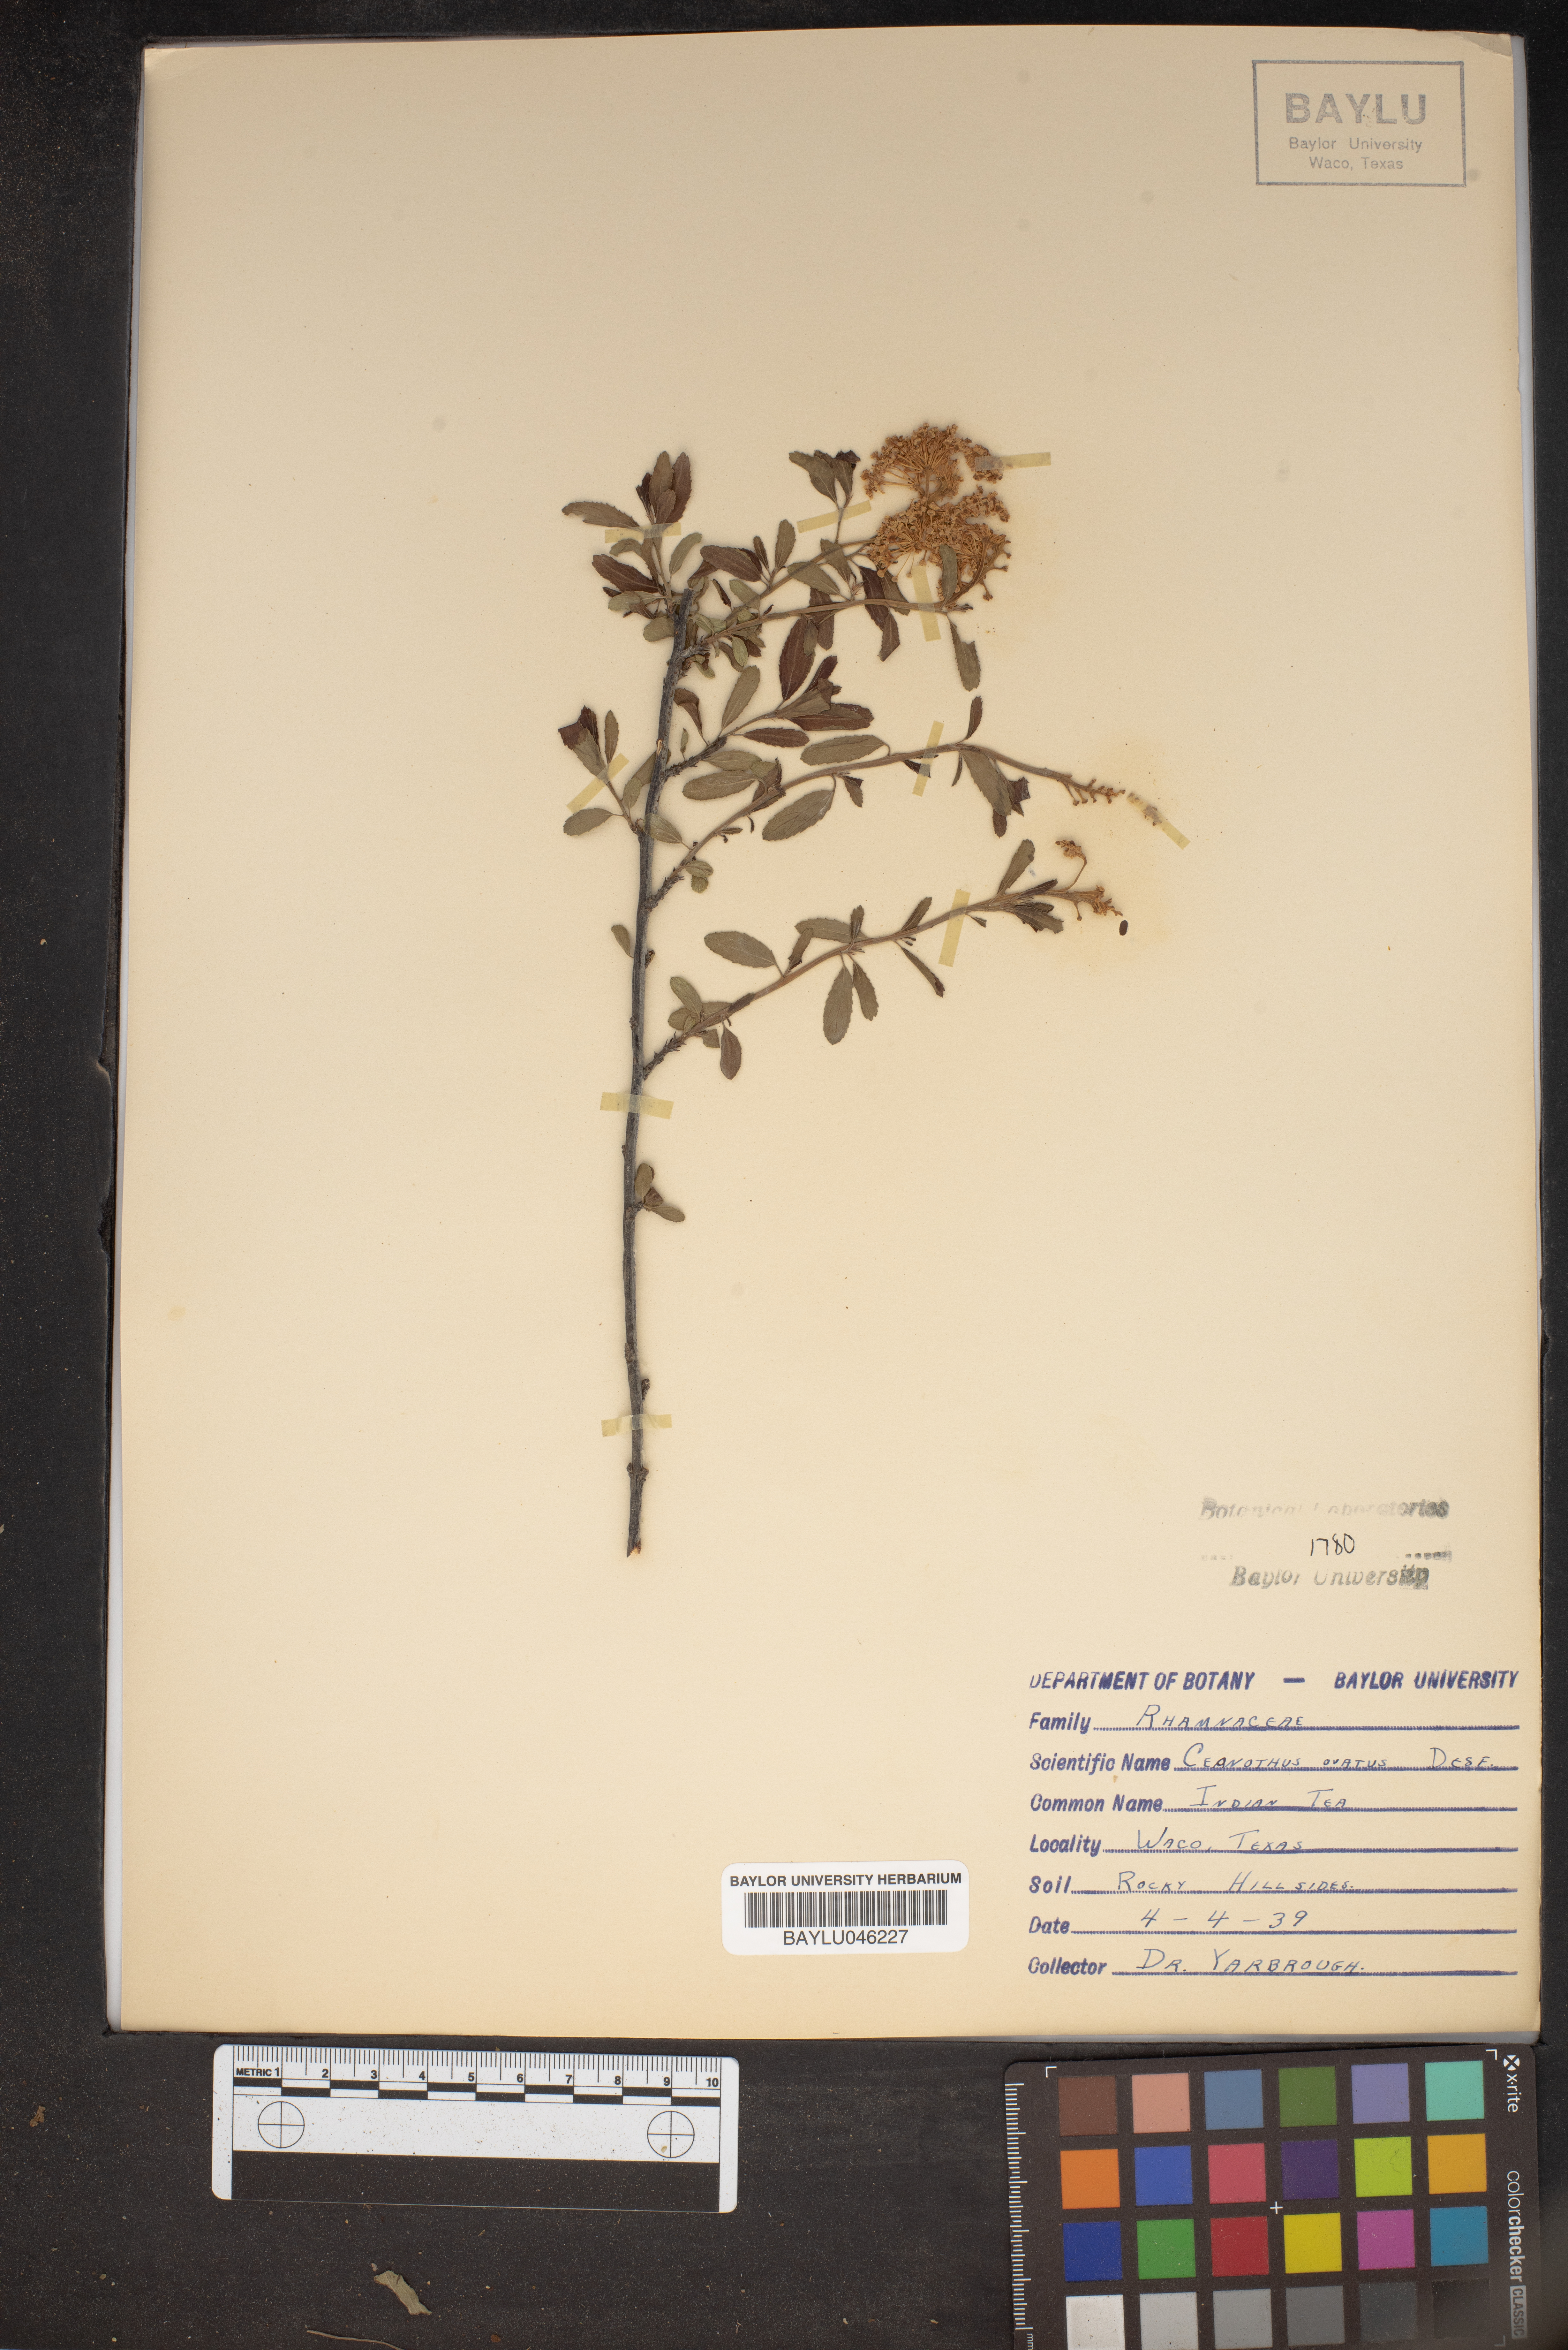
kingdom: Plantae
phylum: Tracheophyta
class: Magnoliopsida
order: Rosales
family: Rhamnaceae
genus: Ceanothus
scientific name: Ceanothus herbaceus
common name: Inland ceanothus
